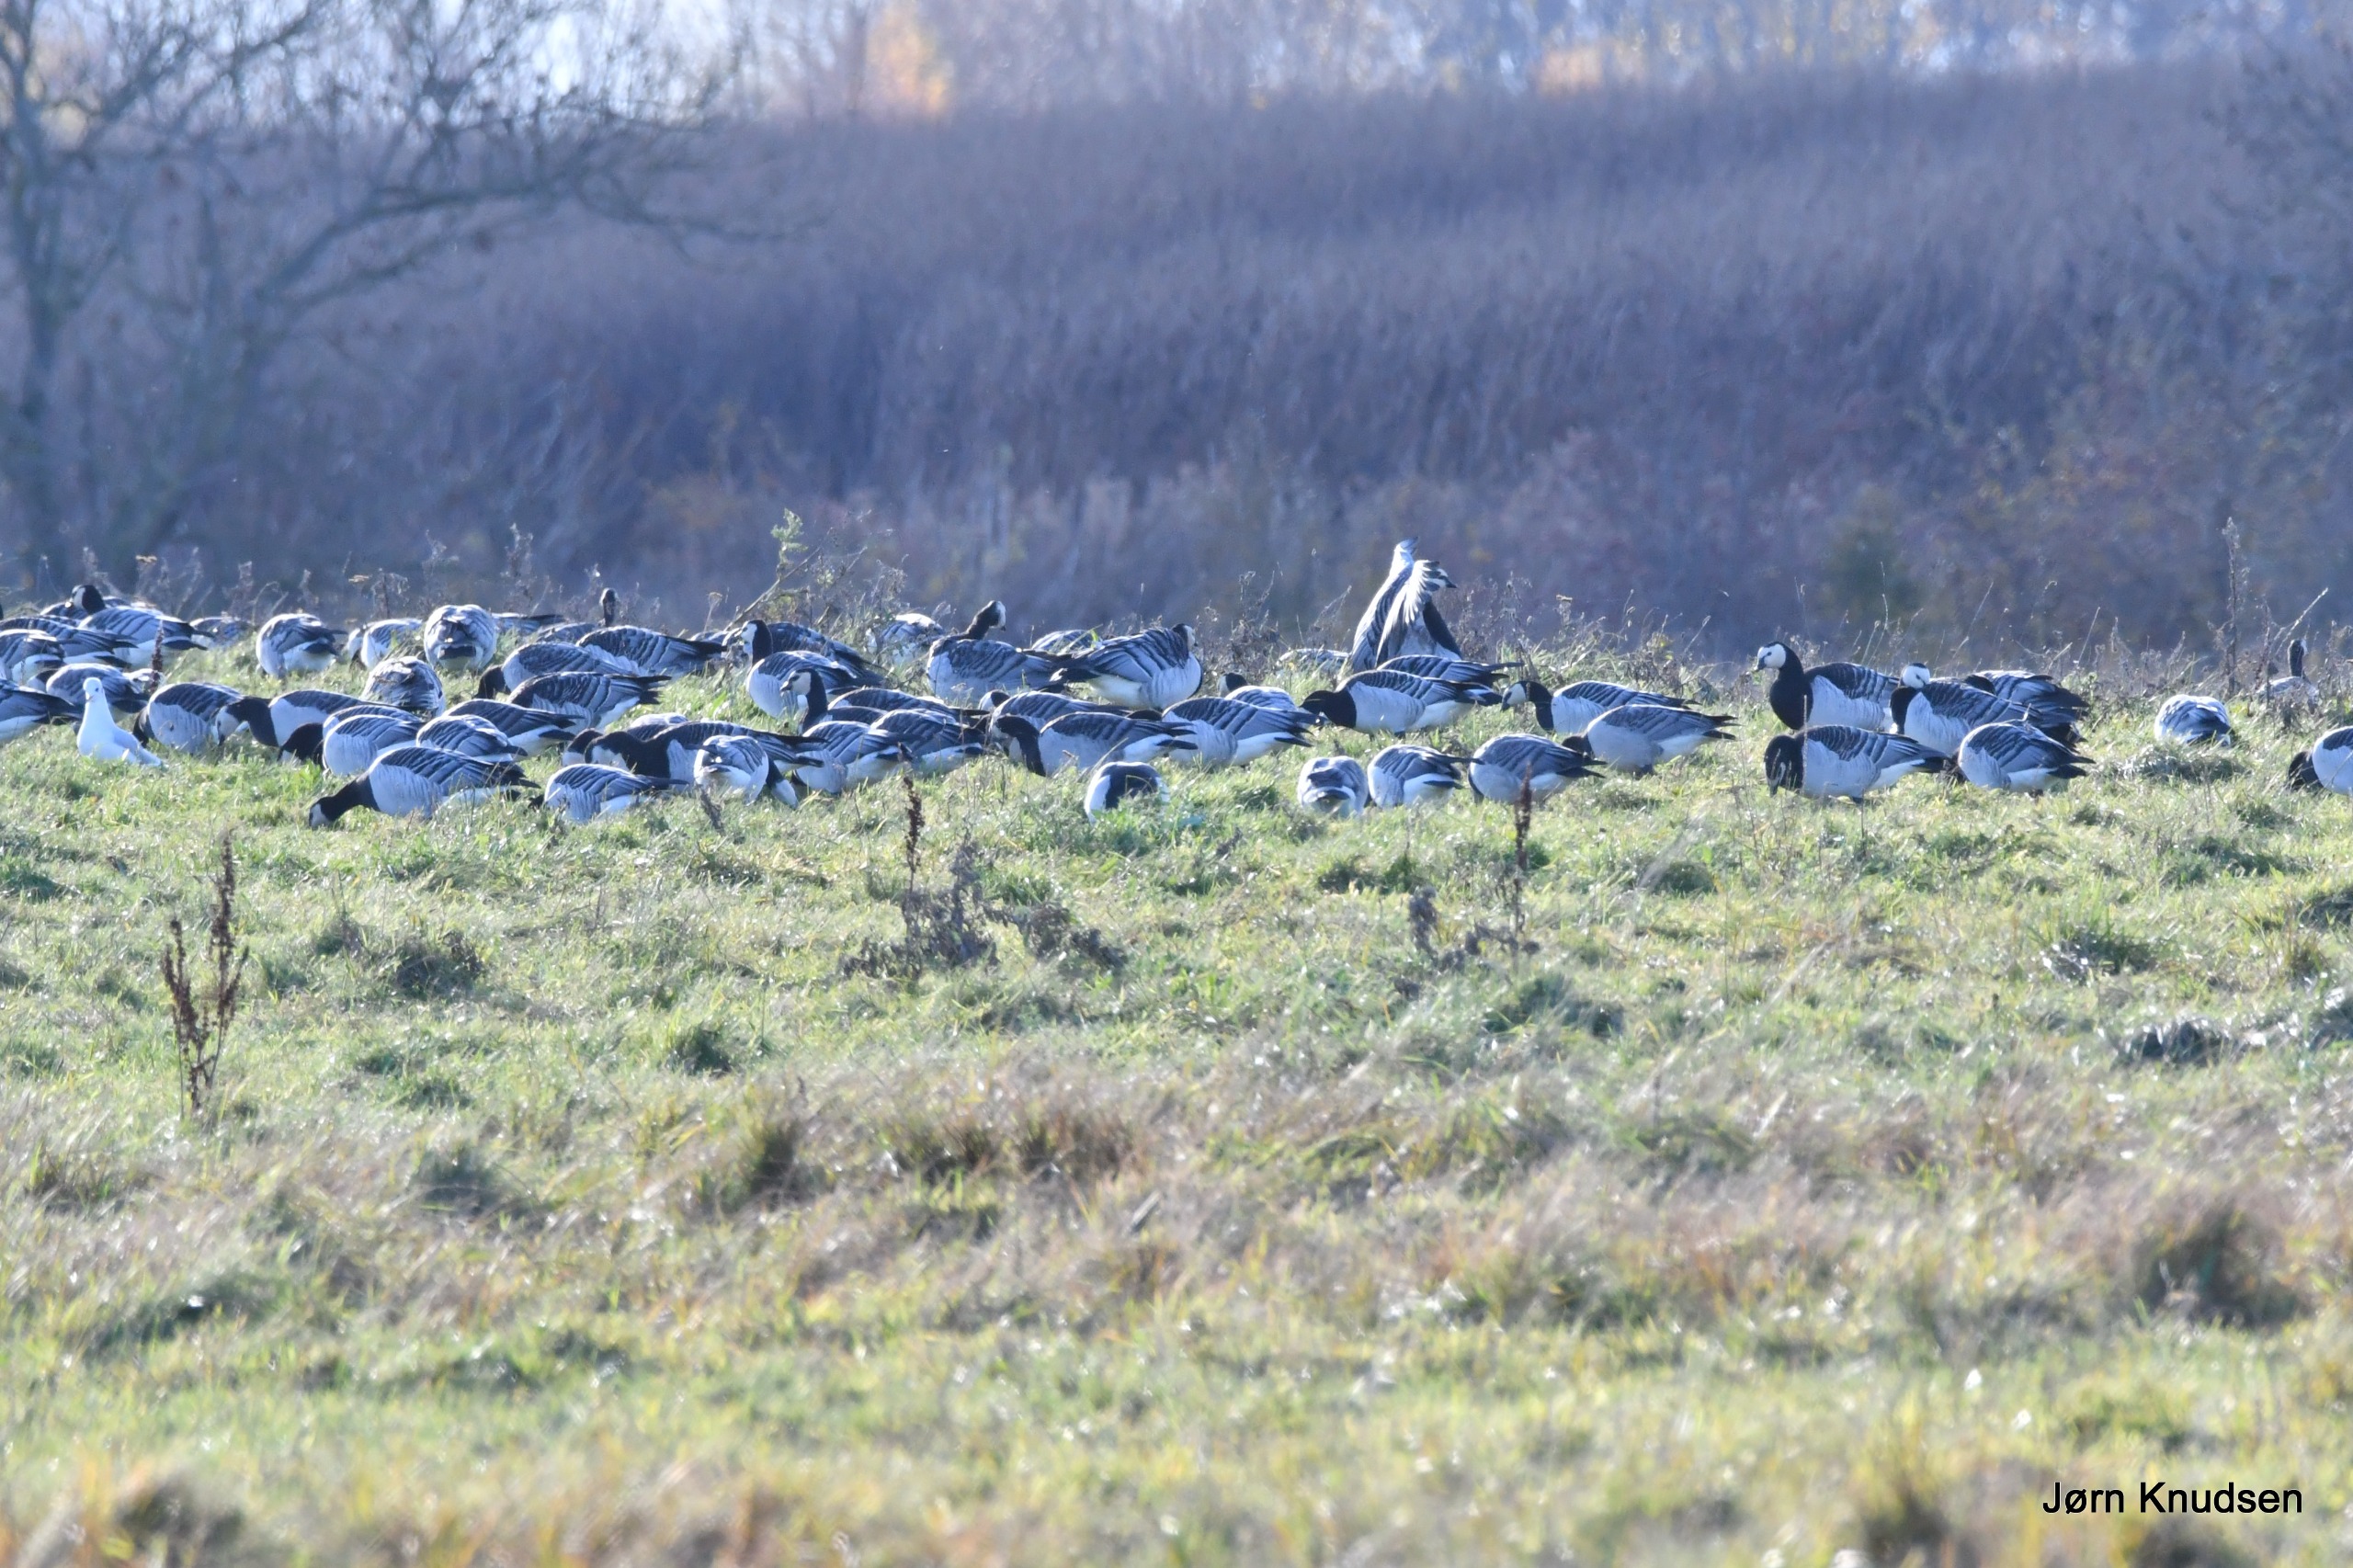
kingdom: Animalia
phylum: Chordata
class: Aves
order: Anseriformes
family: Anatidae
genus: Branta
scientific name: Branta leucopsis
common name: Bramgås
